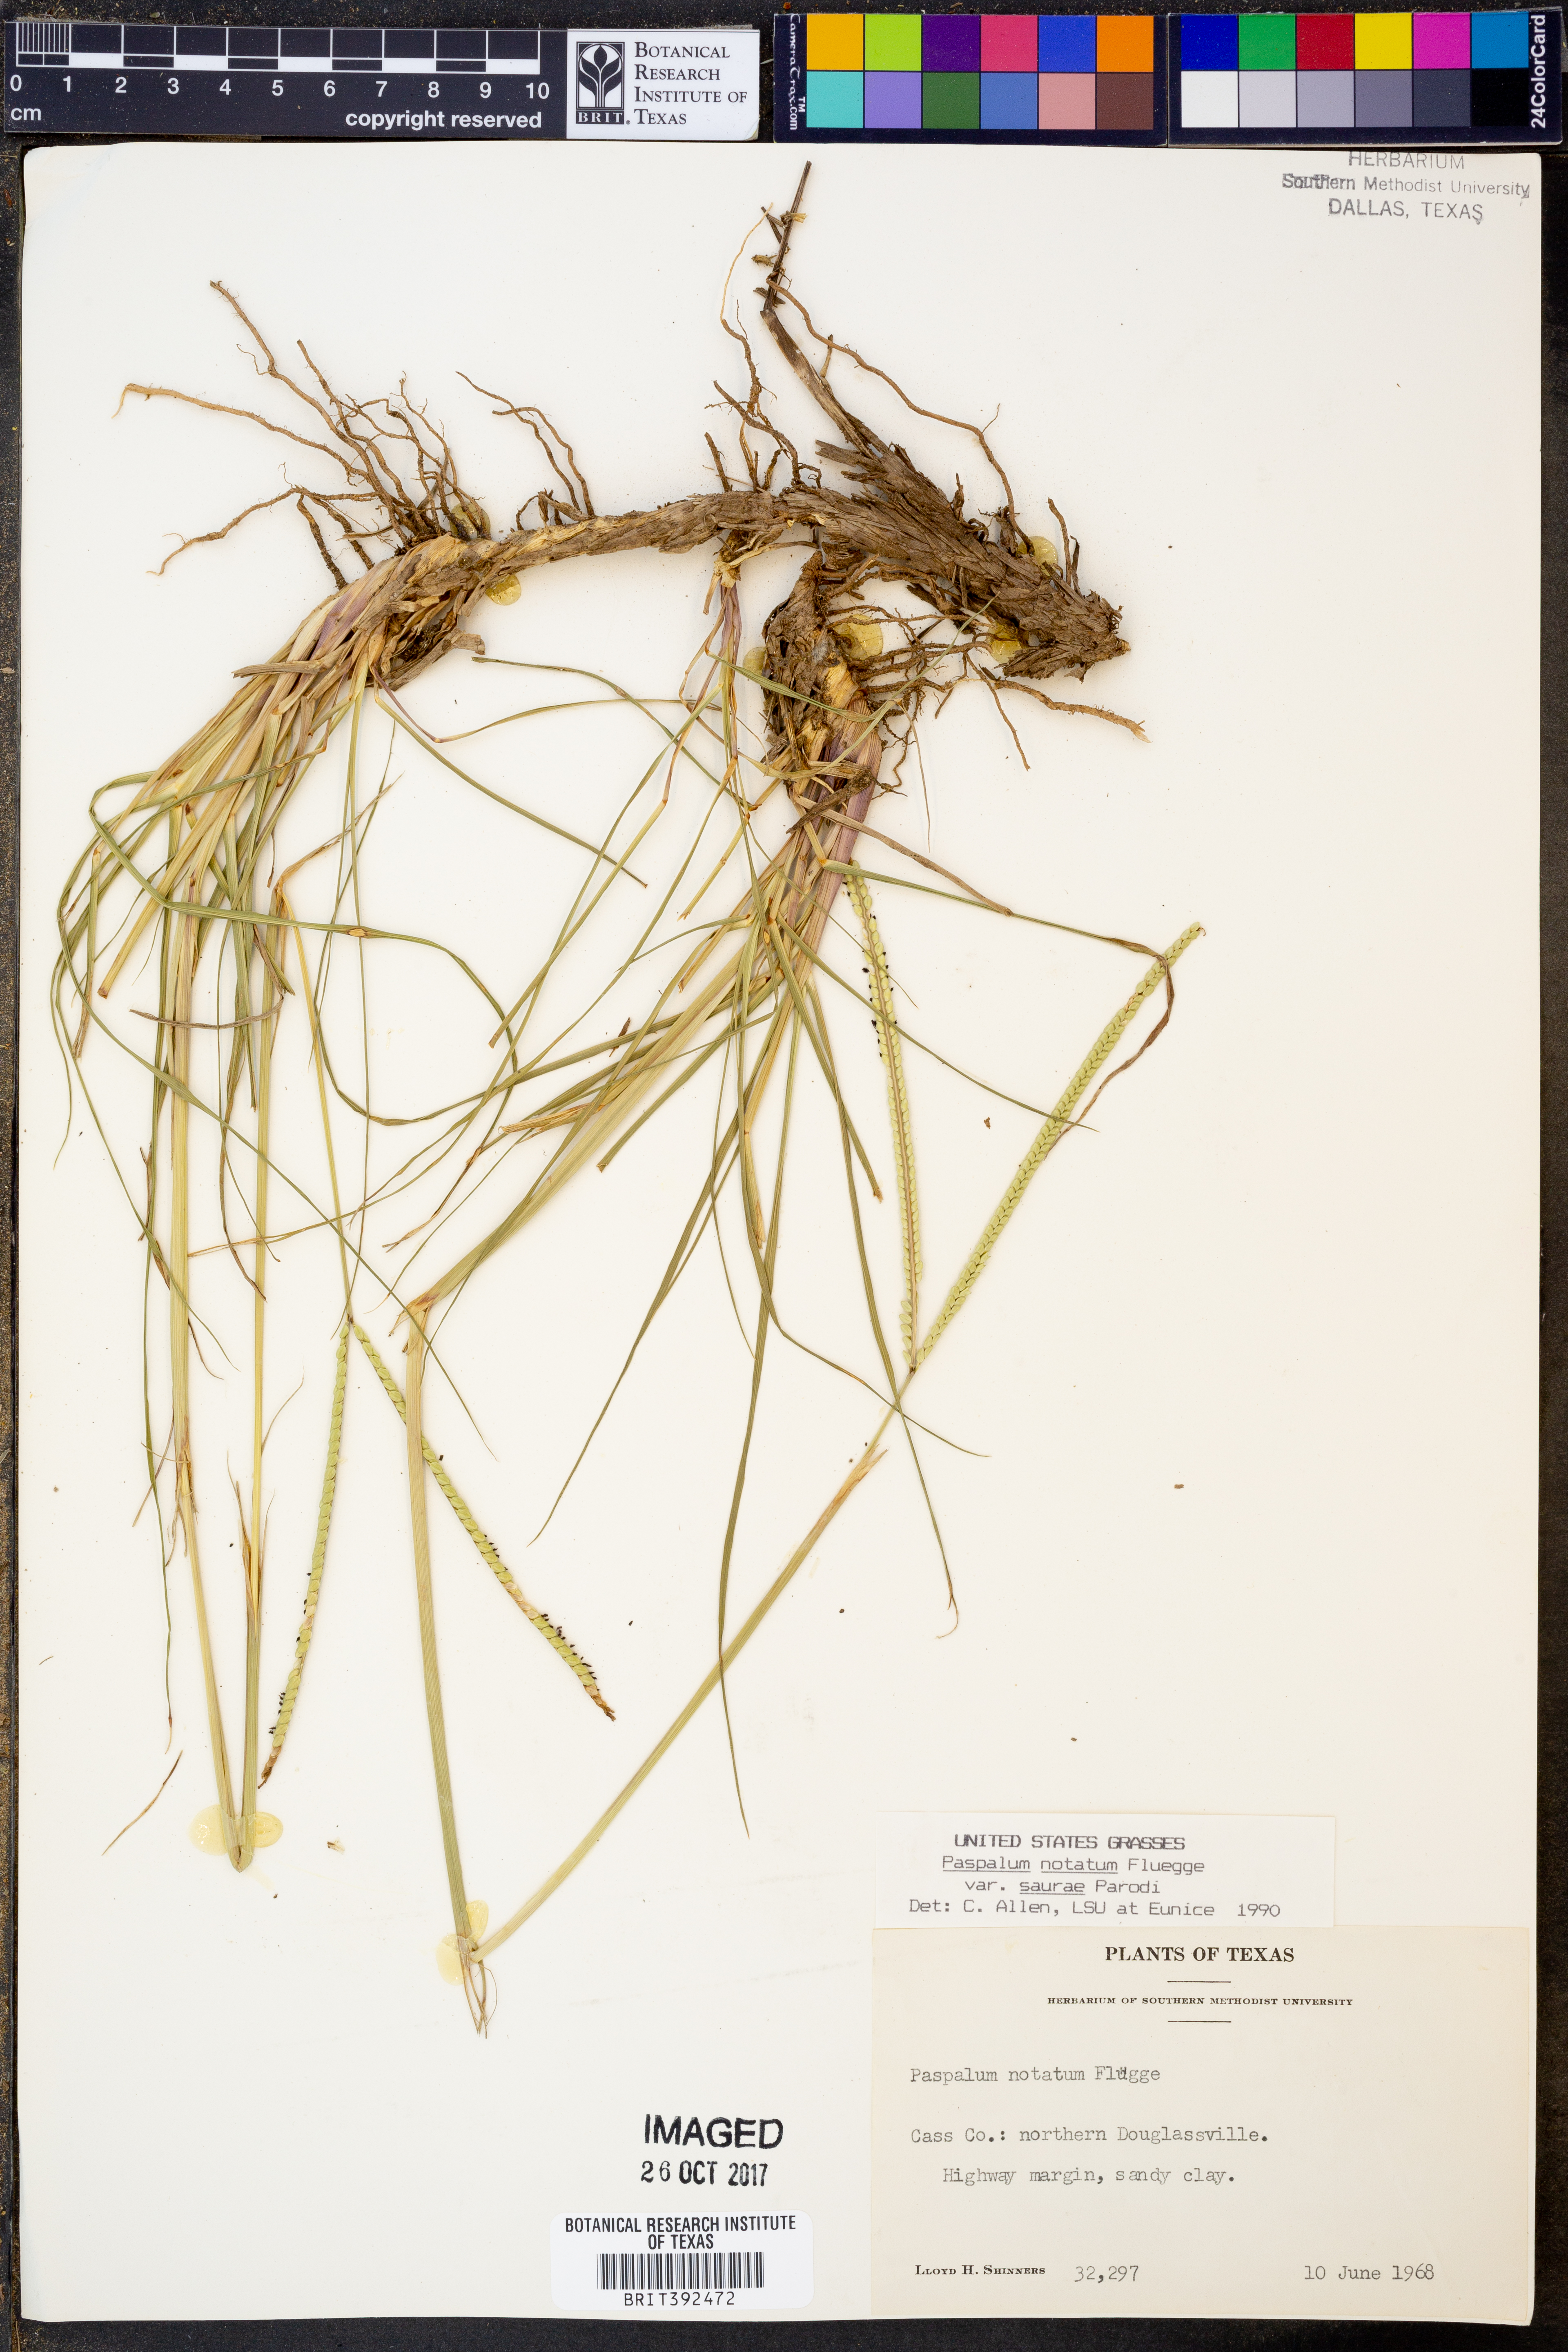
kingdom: Plantae
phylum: Tracheophyta
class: Liliopsida
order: Poales
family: Poaceae
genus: Paspalum
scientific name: Paspalum notatum
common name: Bahiagrass
